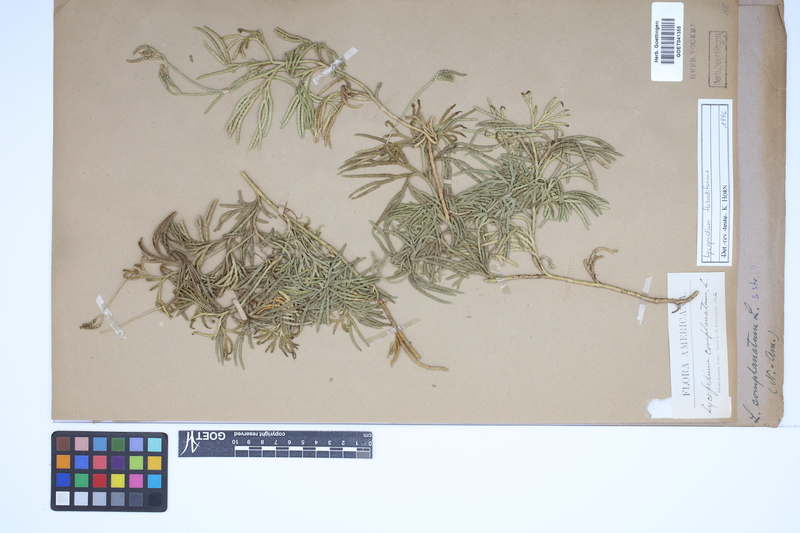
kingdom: Plantae
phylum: Tracheophyta
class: Lycopodiopsida
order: Lycopodiales
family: Lycopodiaceae
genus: Diphasiastrum
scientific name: Diphasiastrum digitatum
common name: Southern running-pine
